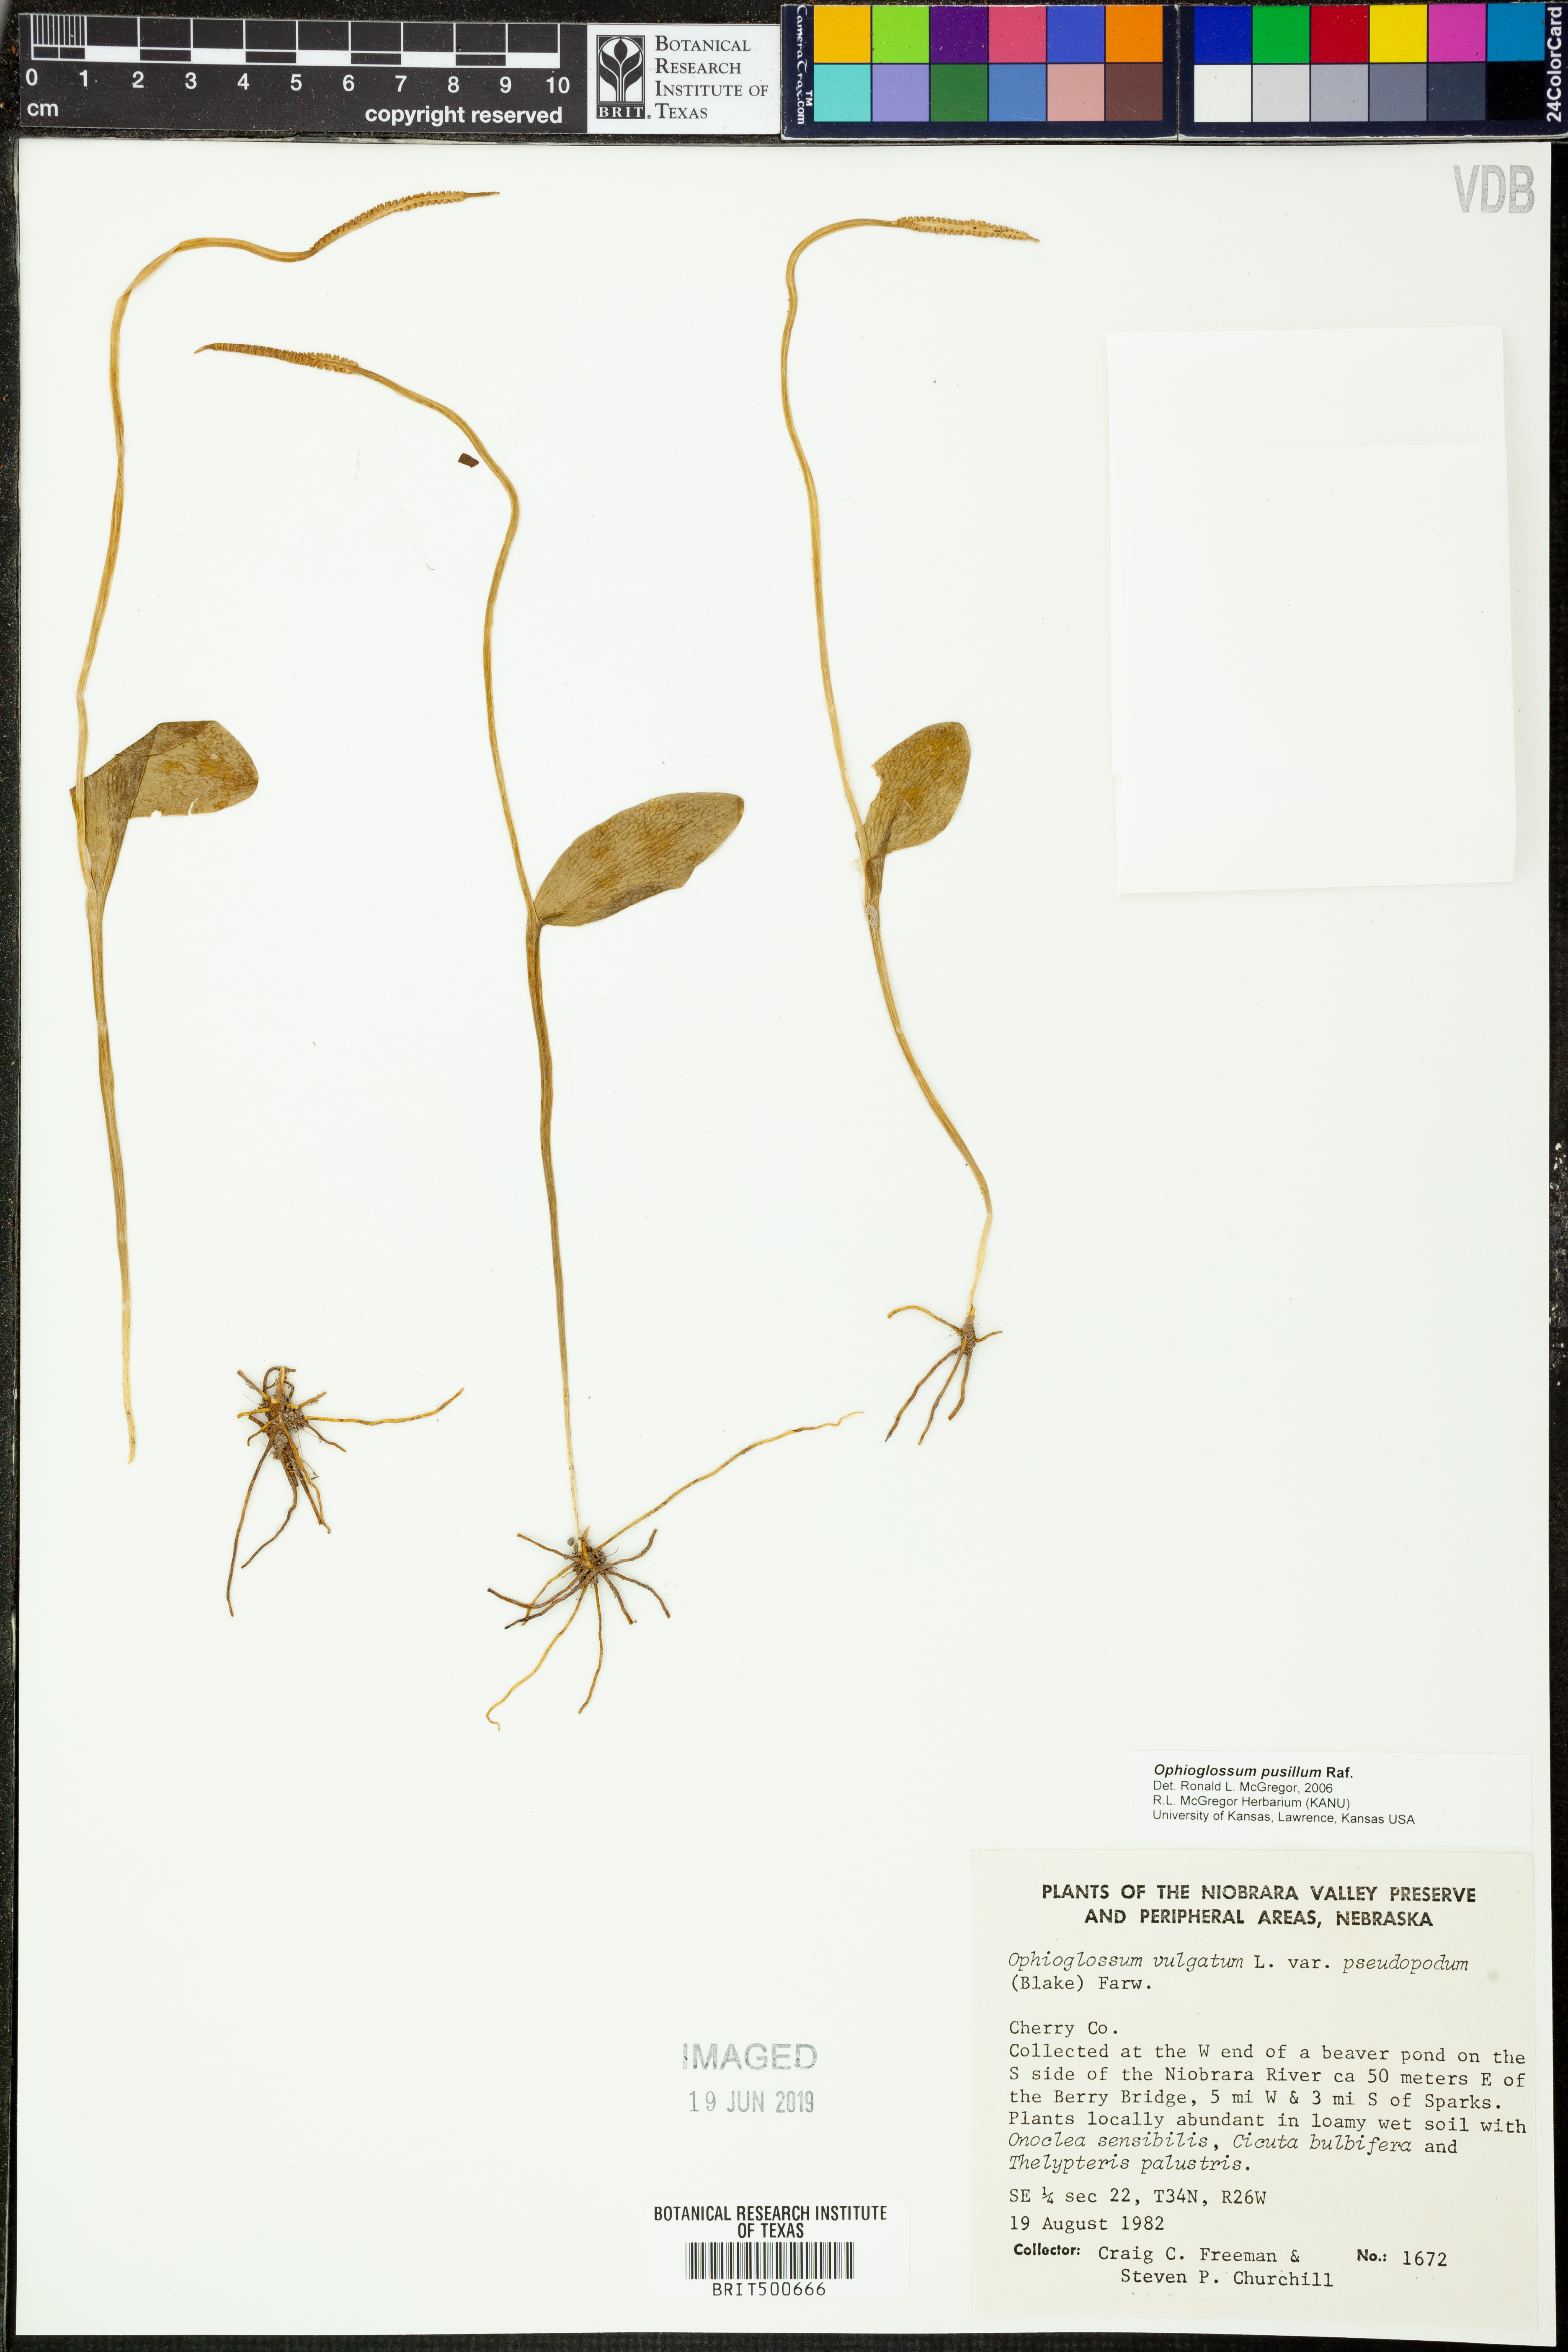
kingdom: Plantae
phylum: Tracheophyta
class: Polypodiopsida
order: Ophioglossales
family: Ophioglossaceae
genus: Ophioglossum
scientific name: Ophioglossum pusillum
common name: Northern adder's-tongue
